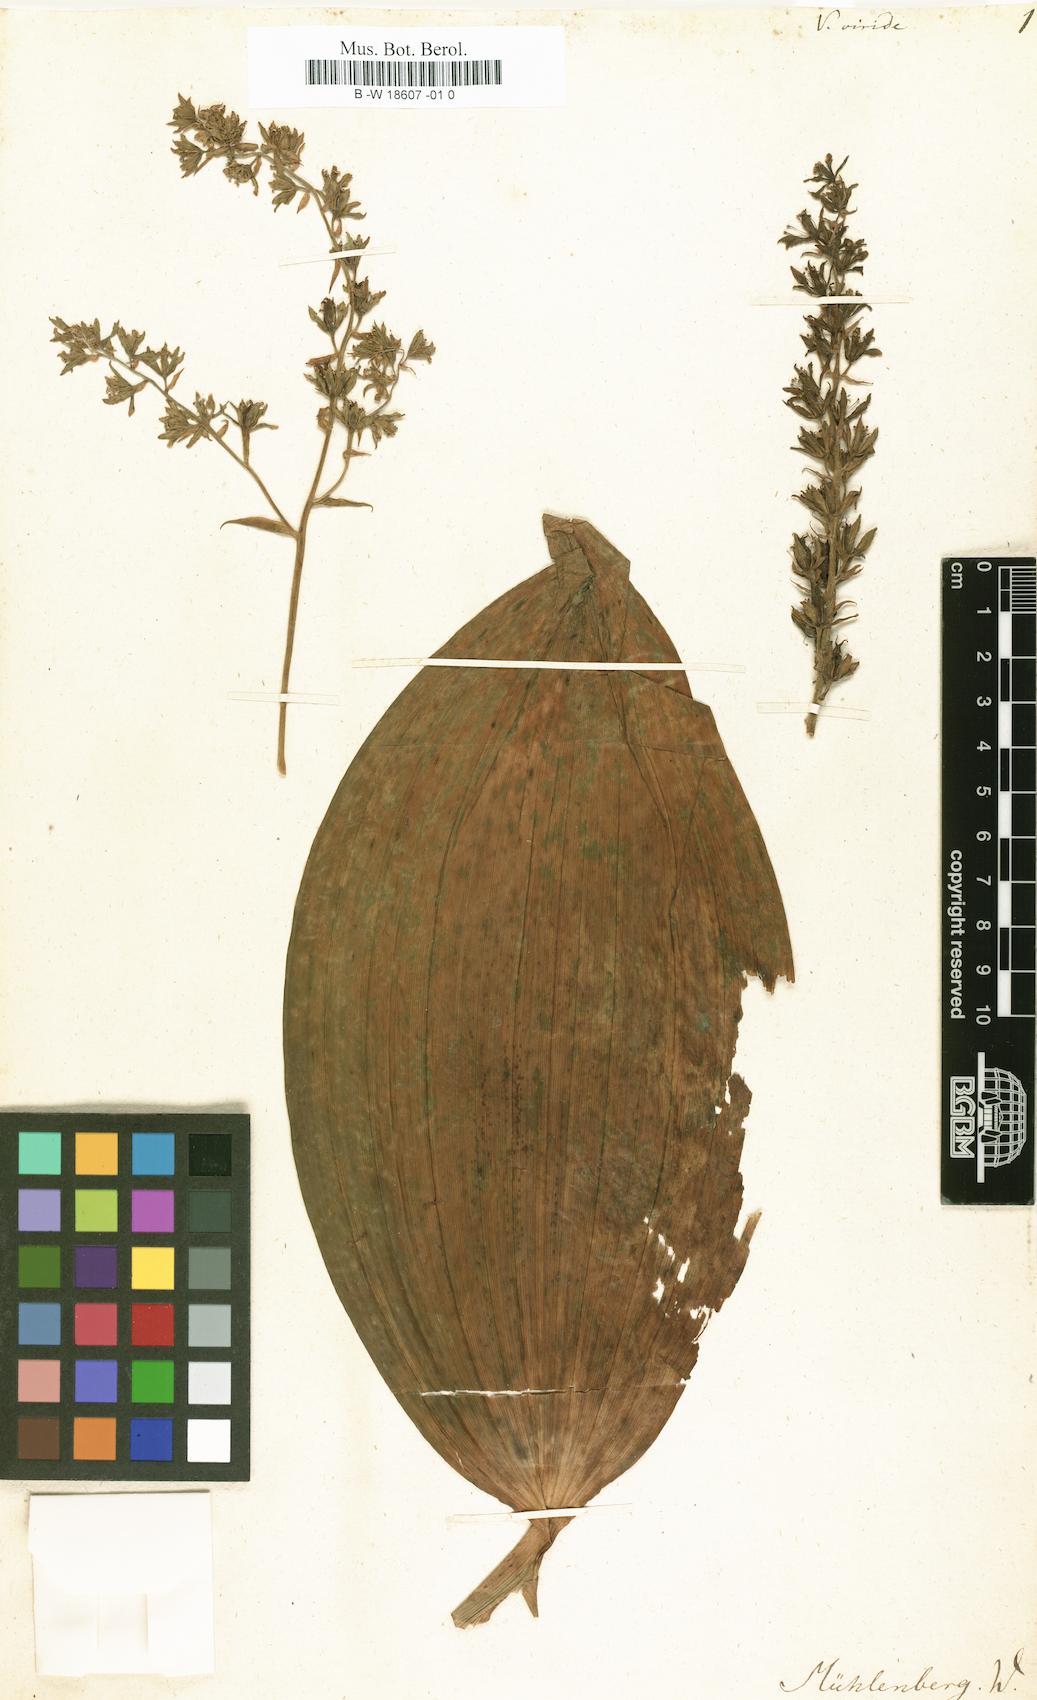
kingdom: Plantae
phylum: Tracheophyta
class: Liliopsida
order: Liliales
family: Melanthiaceae
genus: Veratrum
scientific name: Veratrum viride
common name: American false hellebore
